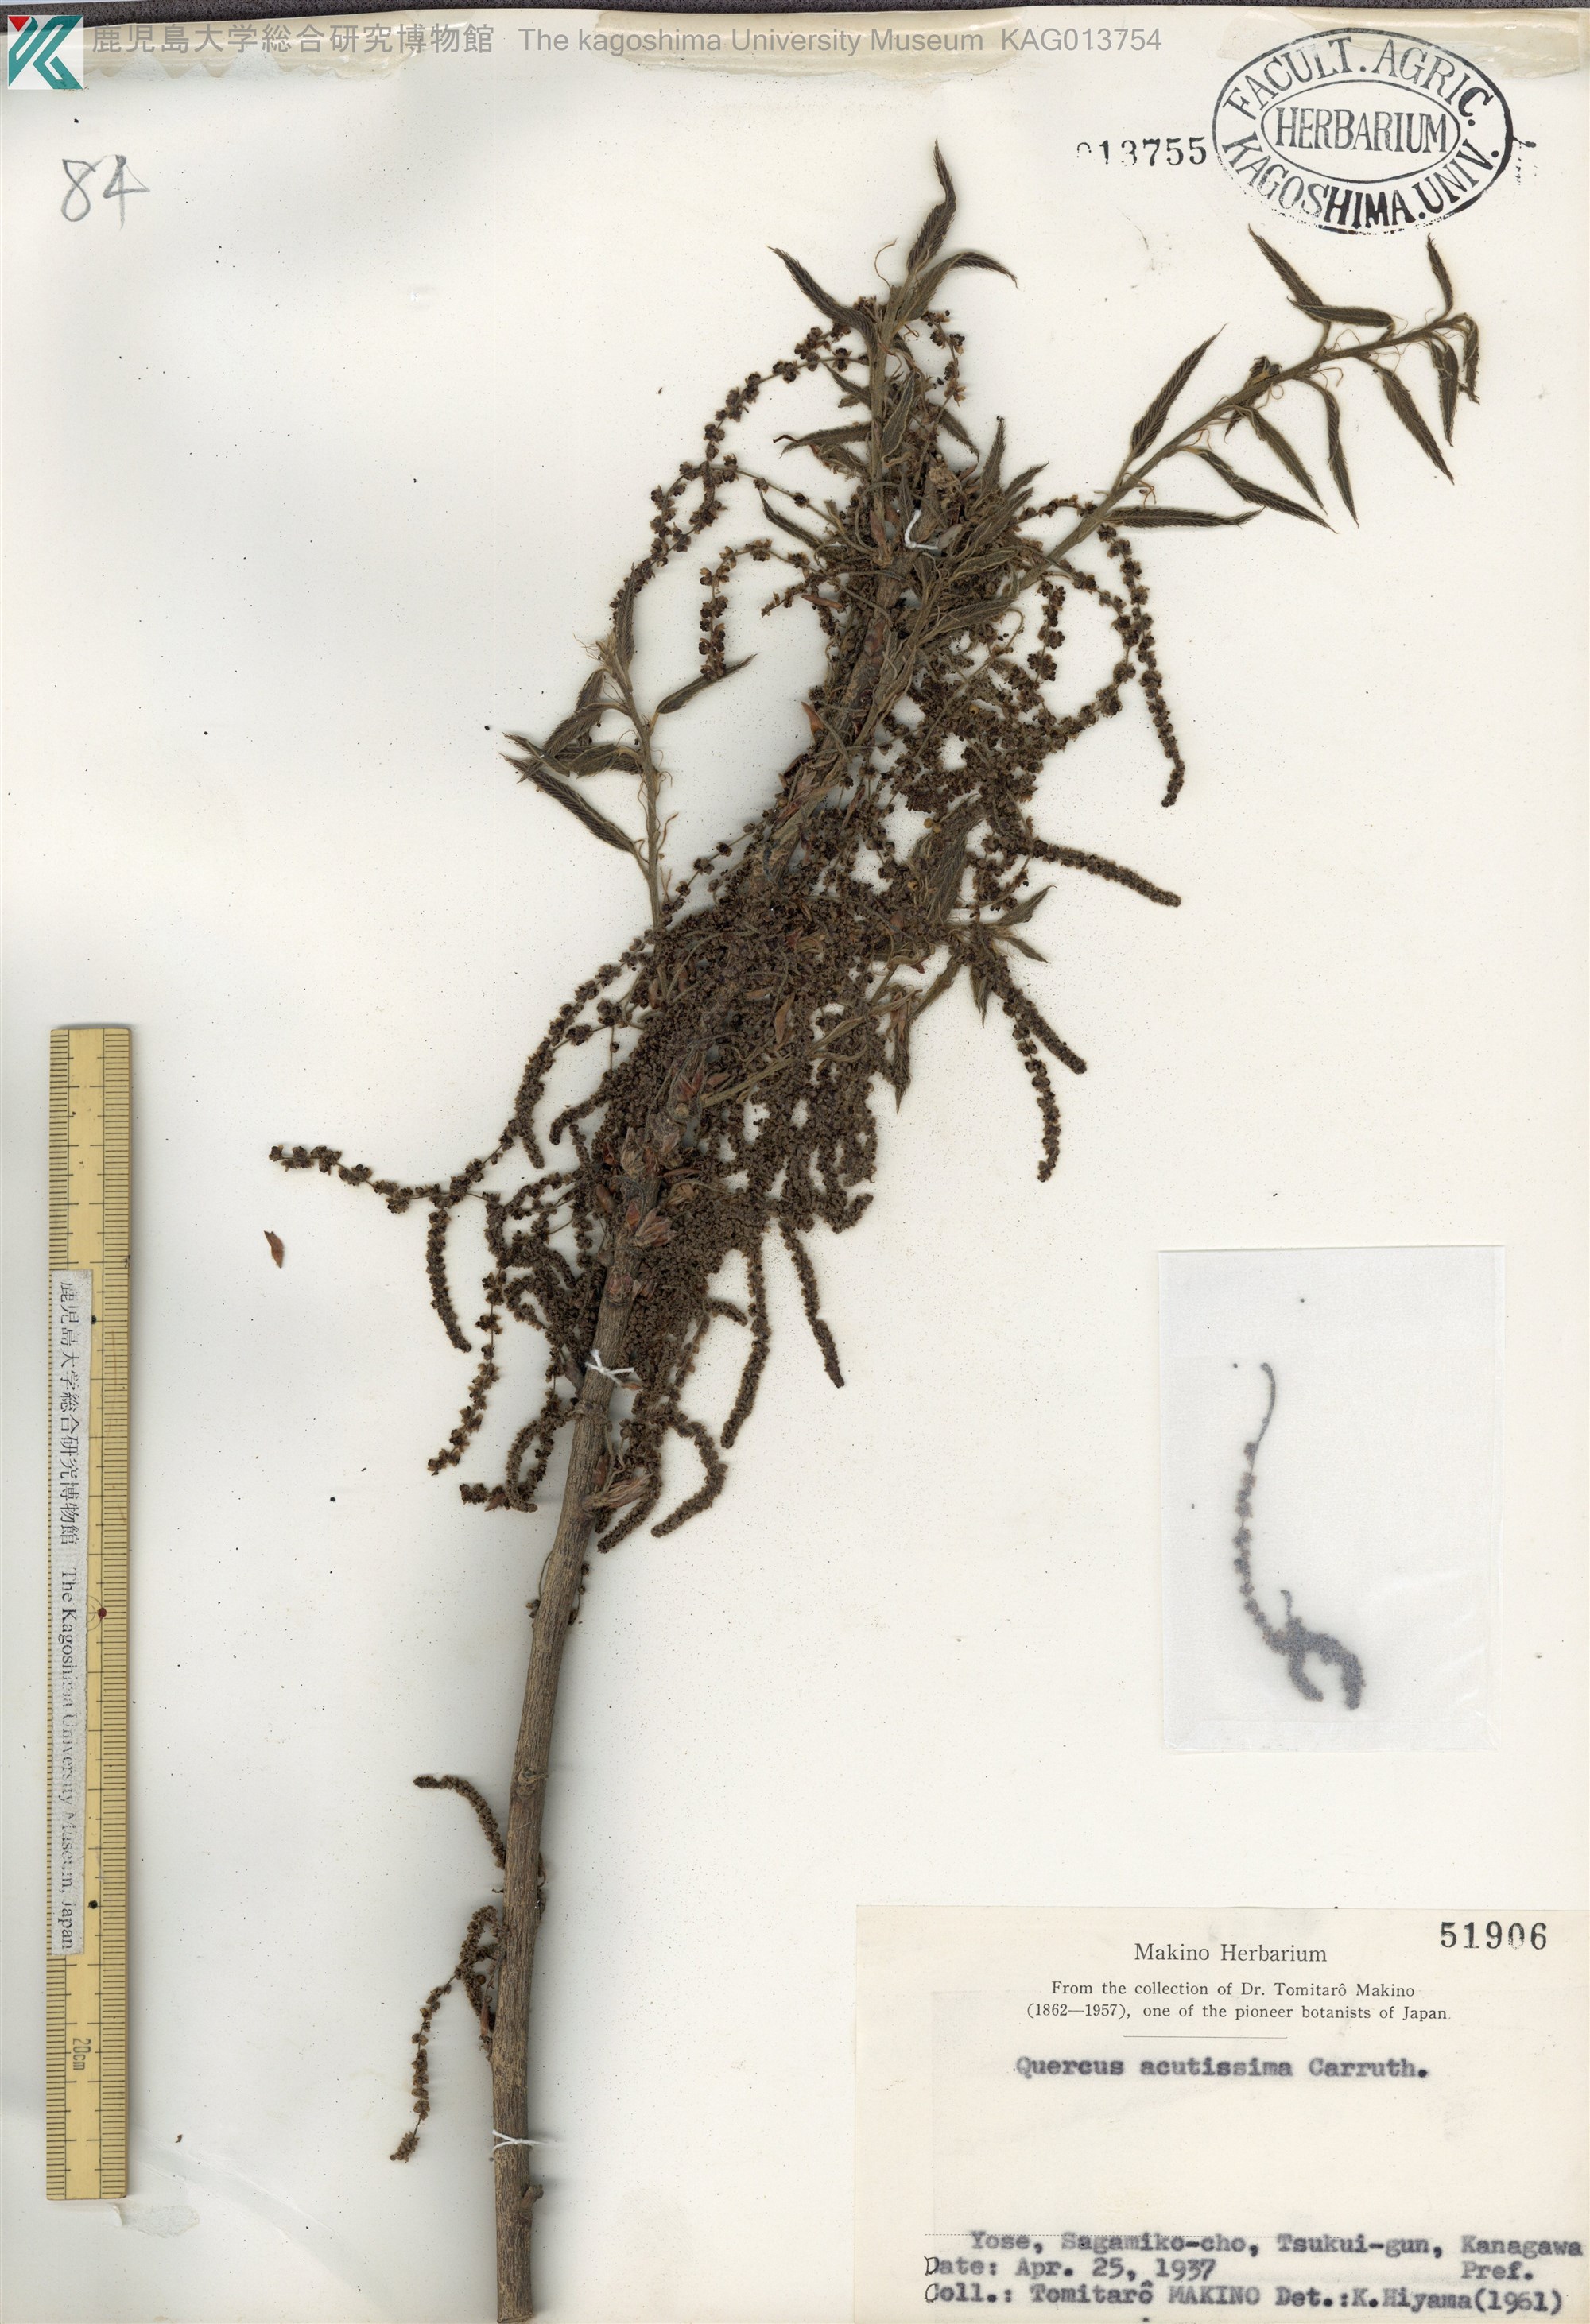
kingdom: Plantae
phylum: Tracheophyta
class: Magnoliopsida
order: Fagales
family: Fagaceae
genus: Quercus
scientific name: Quercus acutissima
